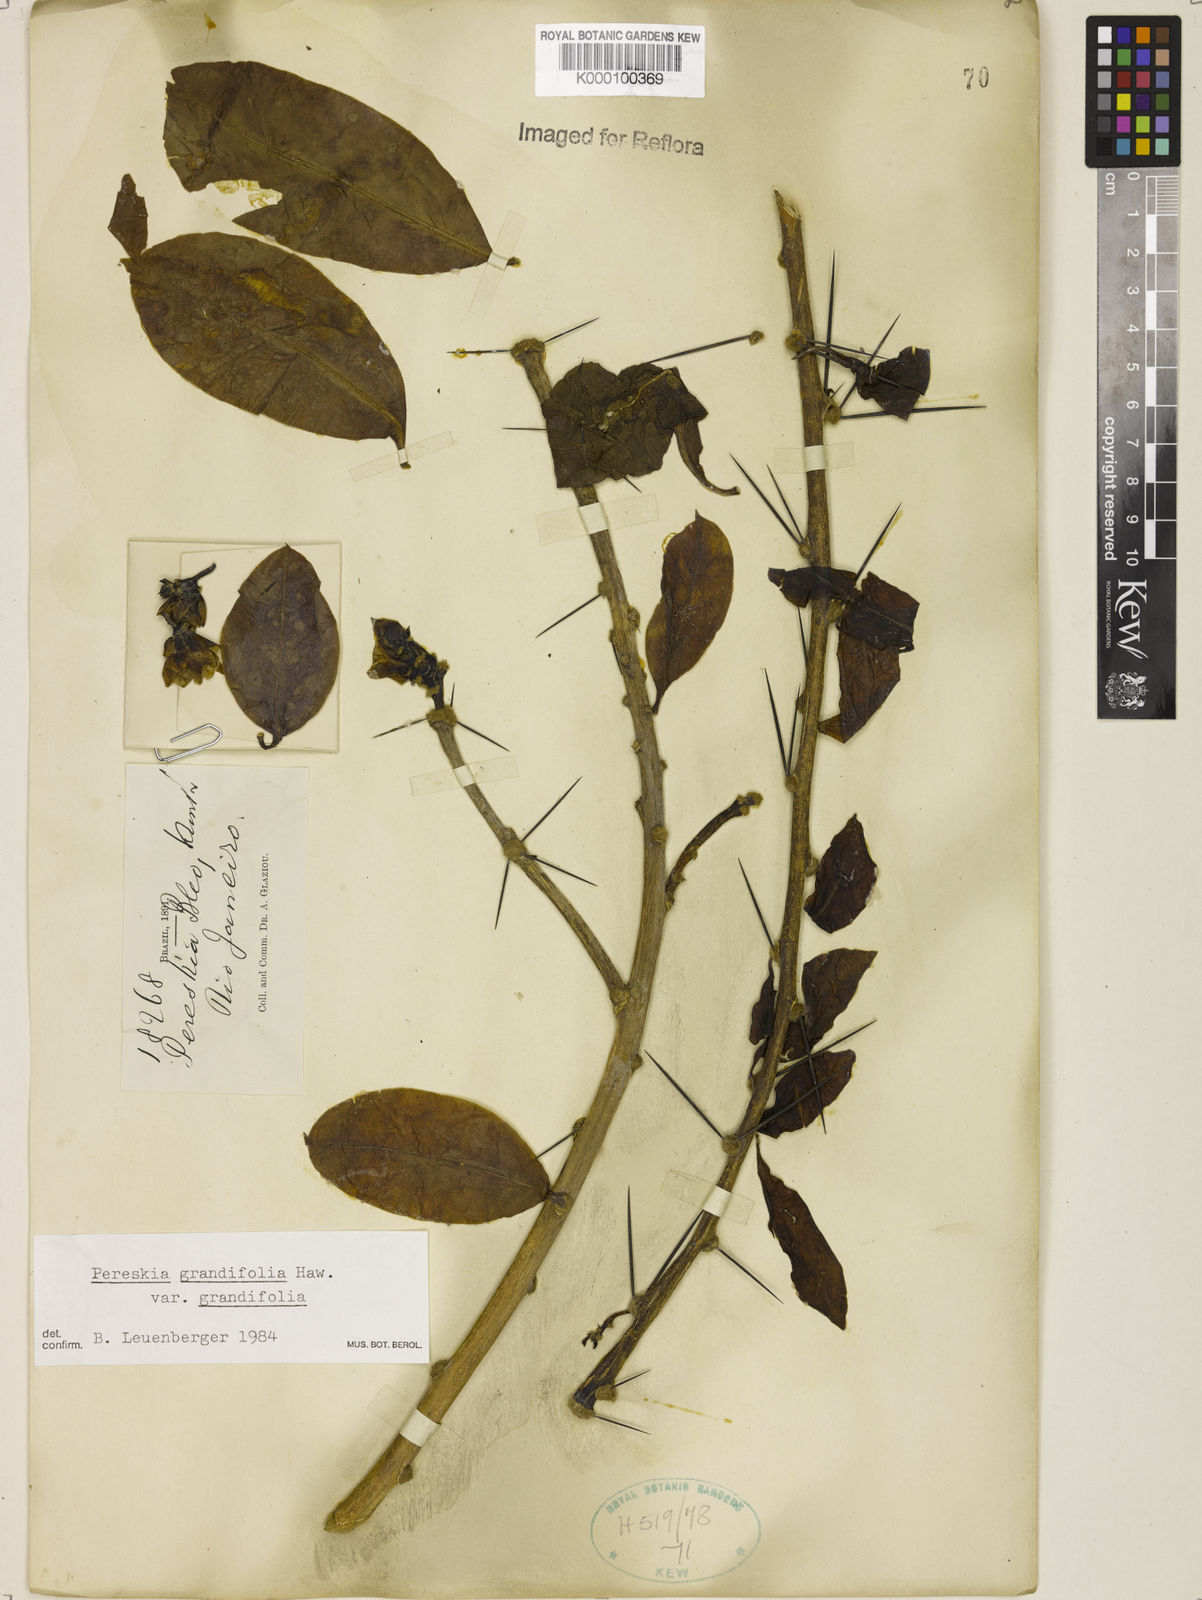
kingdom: Plantae
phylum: Tracheophyta
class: Magnoliopsida
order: Caryophyllales
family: Cactaceae
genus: Pereskia
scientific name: Pereskia grandifolia
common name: Rose cactus
